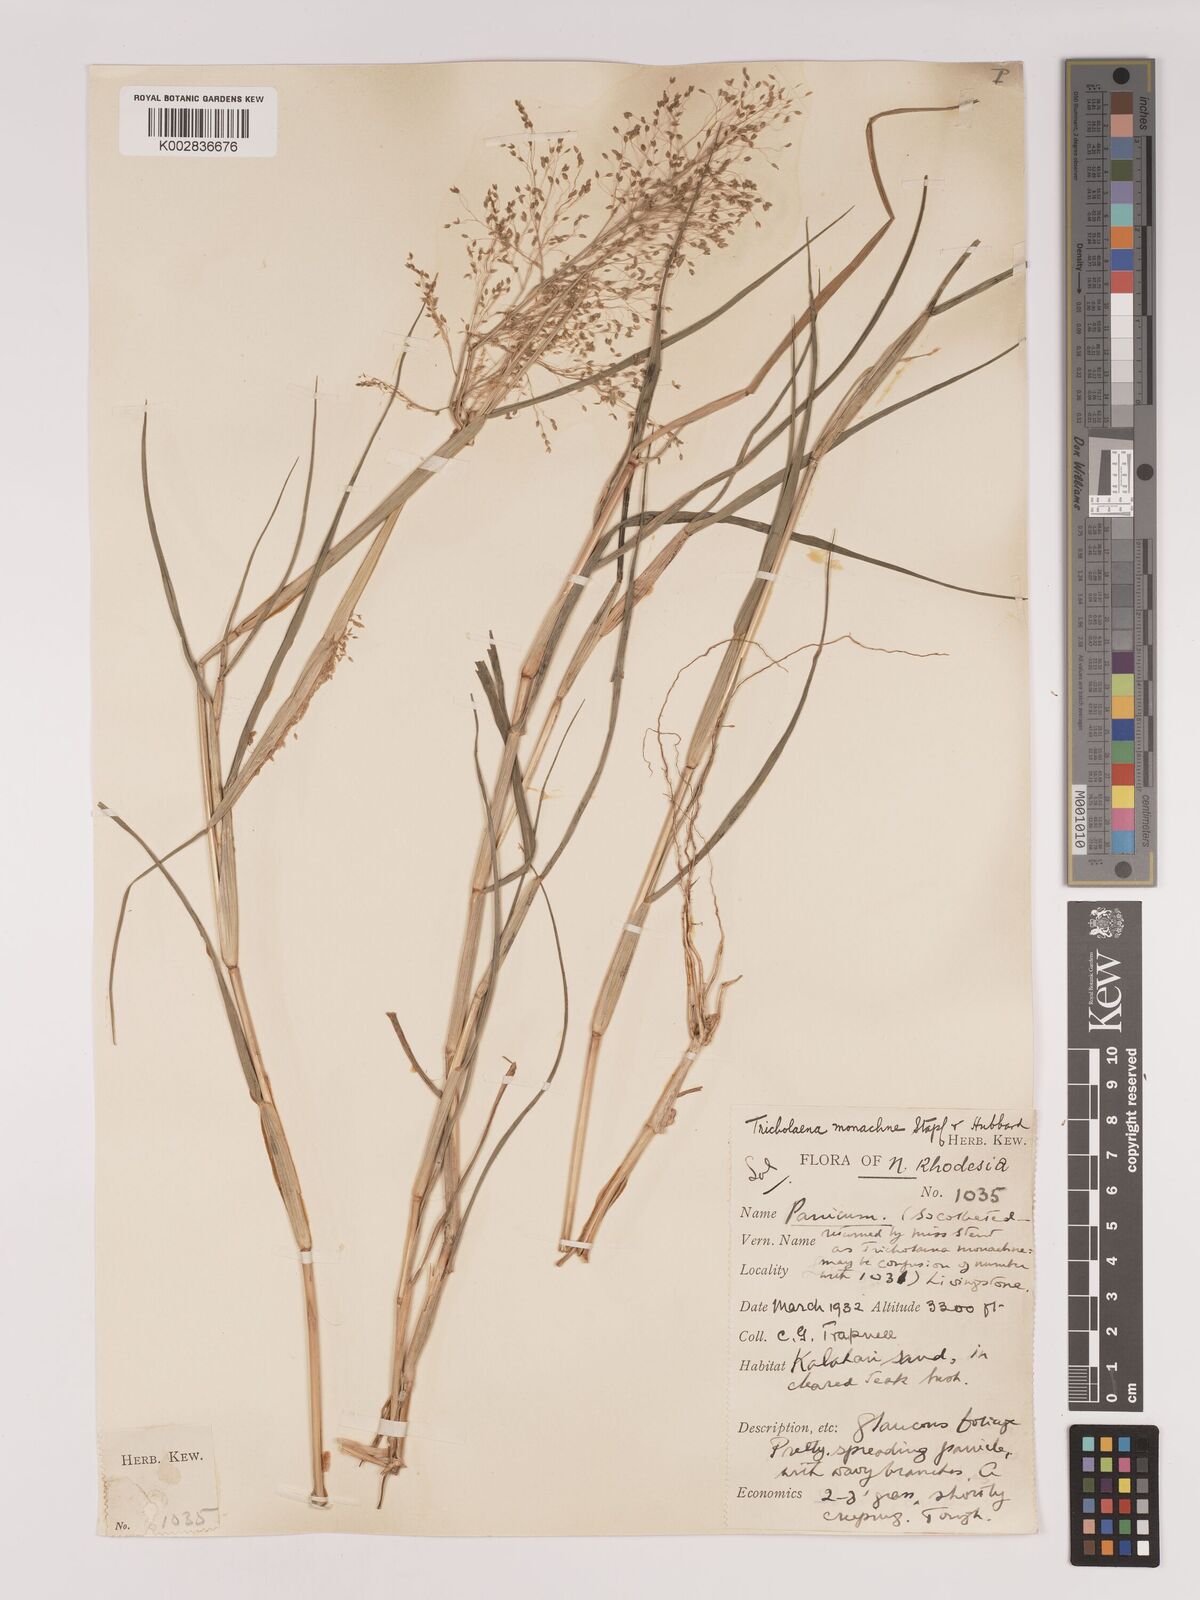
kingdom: Plantae
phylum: Tracheophyta
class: Liliopsida
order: Poales
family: Poaceae
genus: Tricholaena
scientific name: Tricholaena monachne
